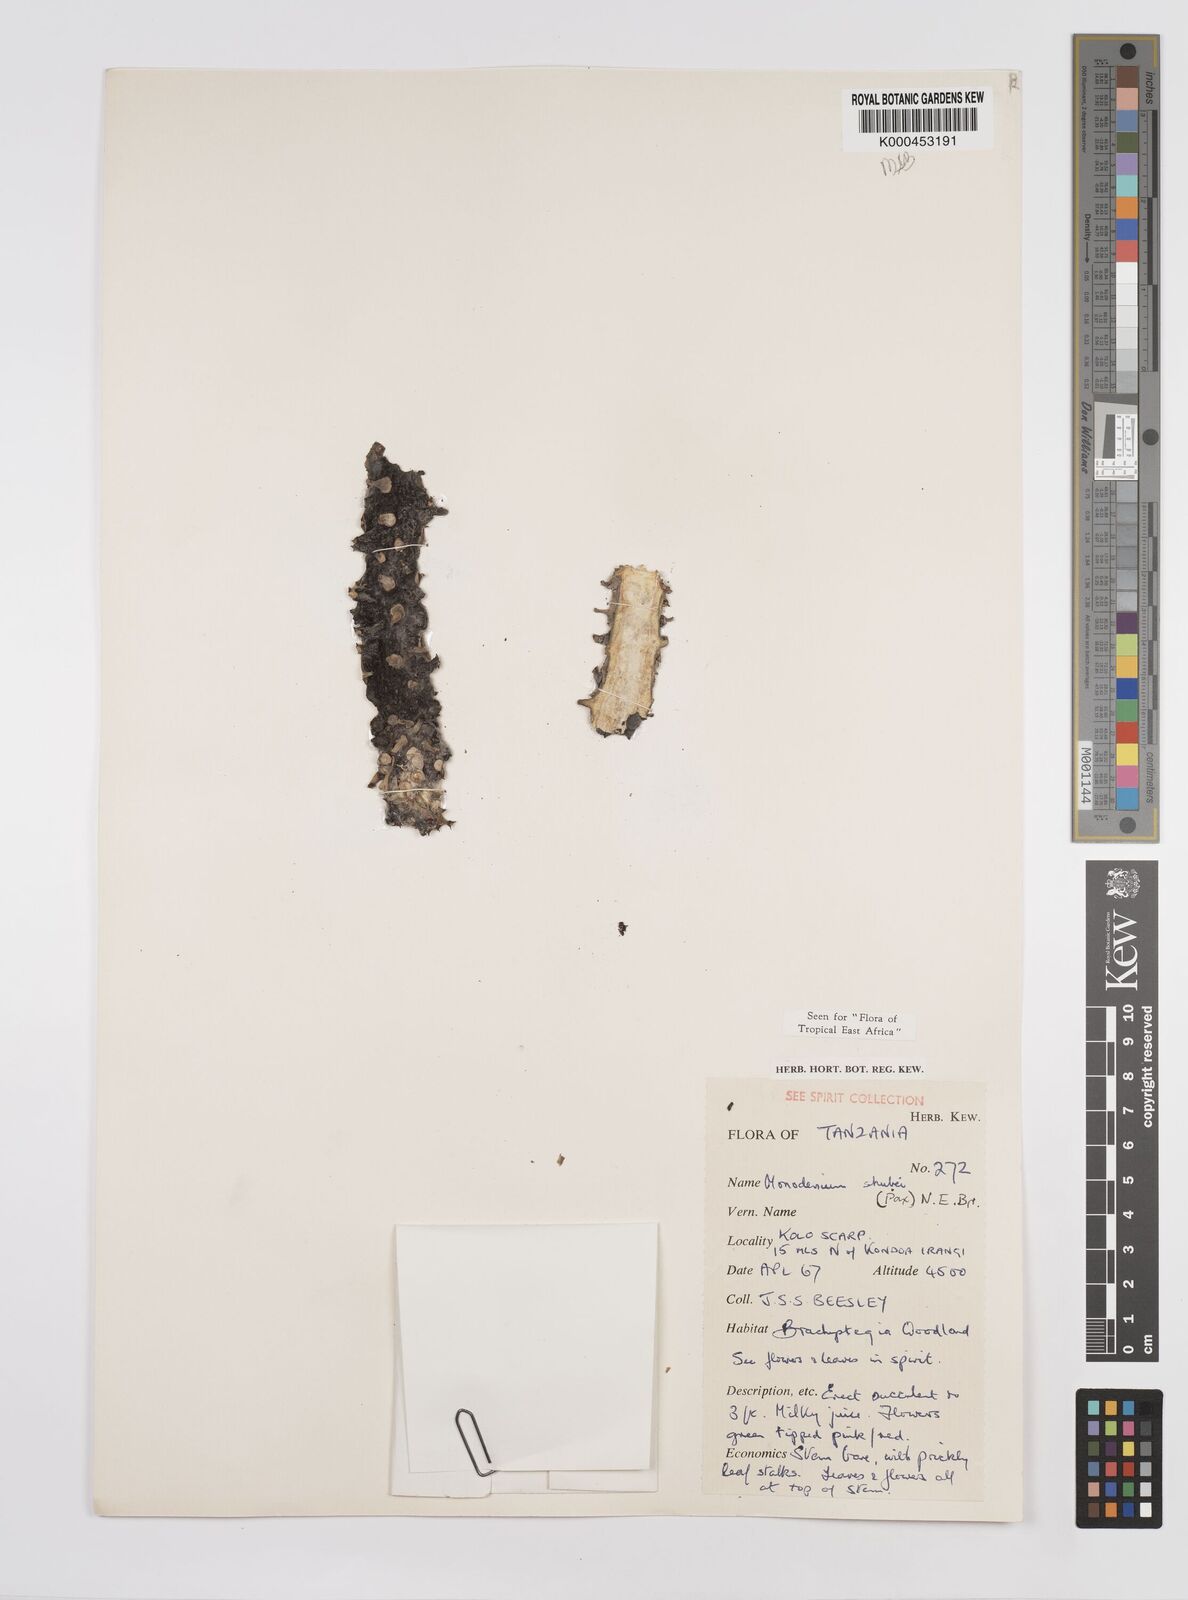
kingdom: Plantae
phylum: Tracheophyta
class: Magnoliopsida
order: Malpighiales
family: Euphorbiaceae
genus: Euphorbia
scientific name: Euphorbia schubei
